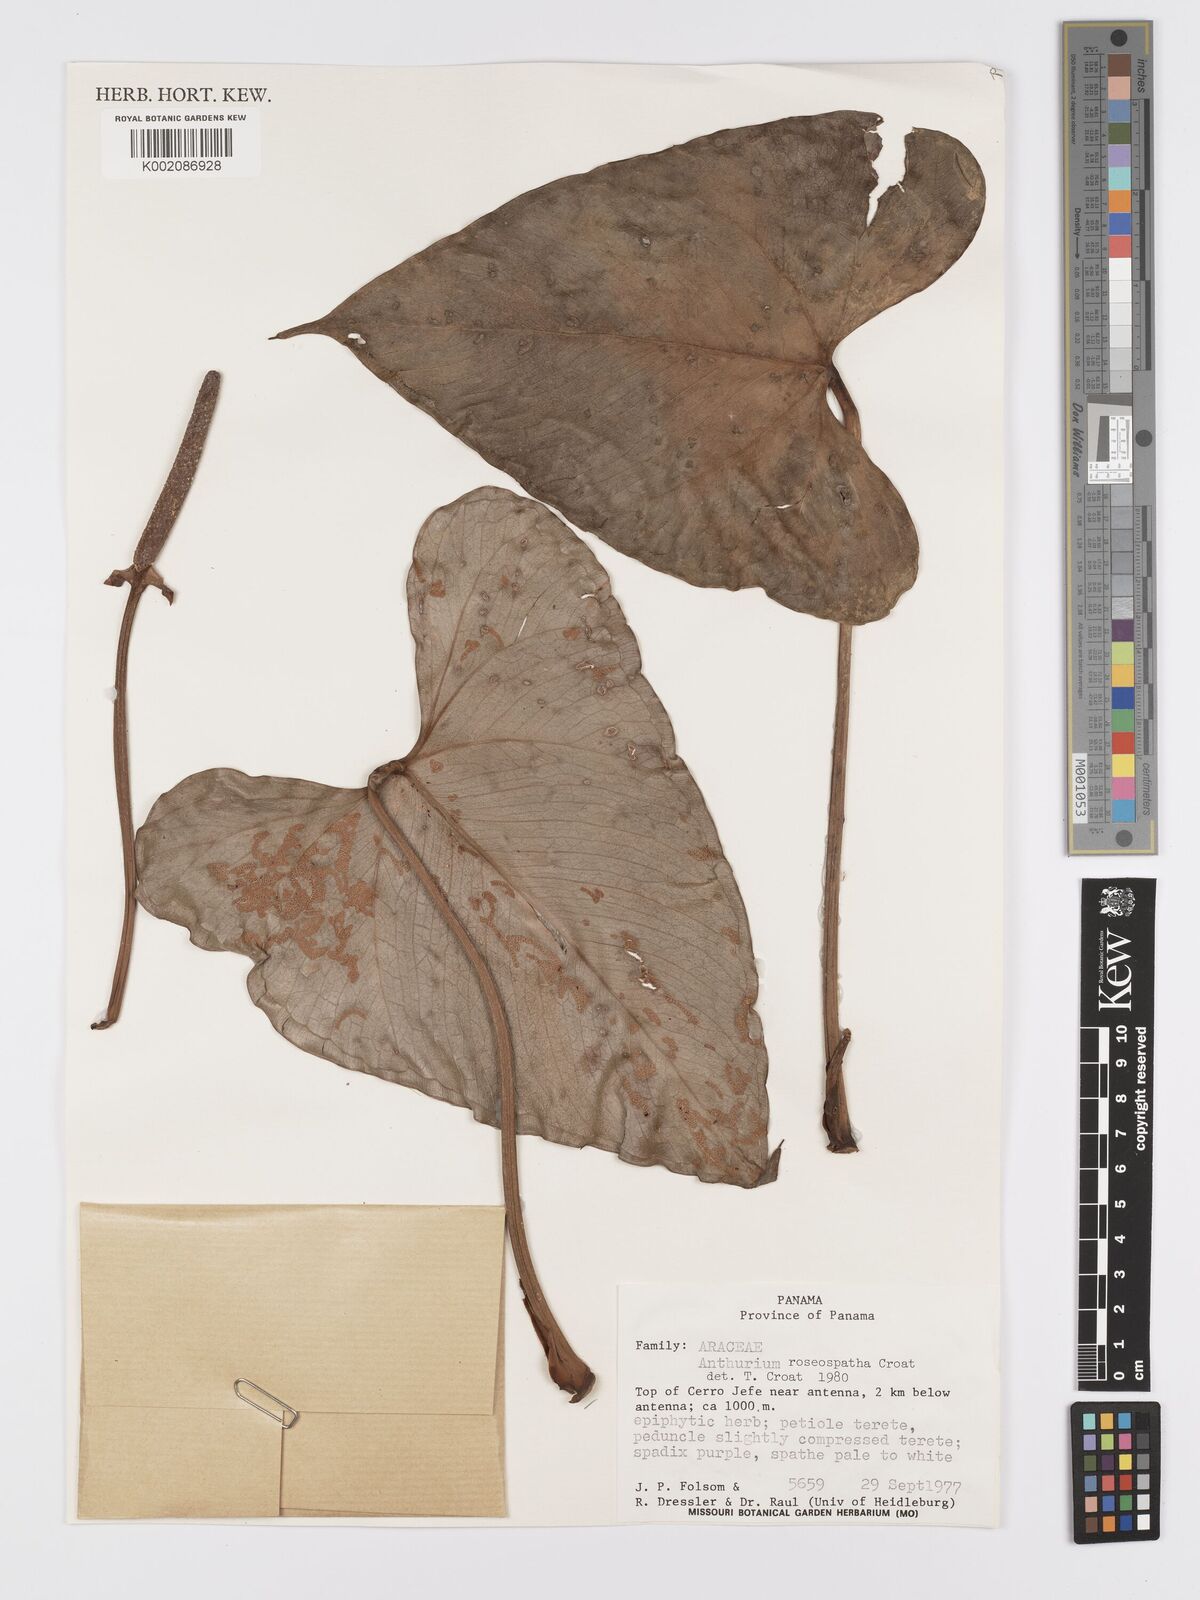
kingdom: Plantae
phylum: Tracheophyta
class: Liliopsida
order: Alismatales
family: Araceae
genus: Anthurium
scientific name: Anthurium roseospadix
